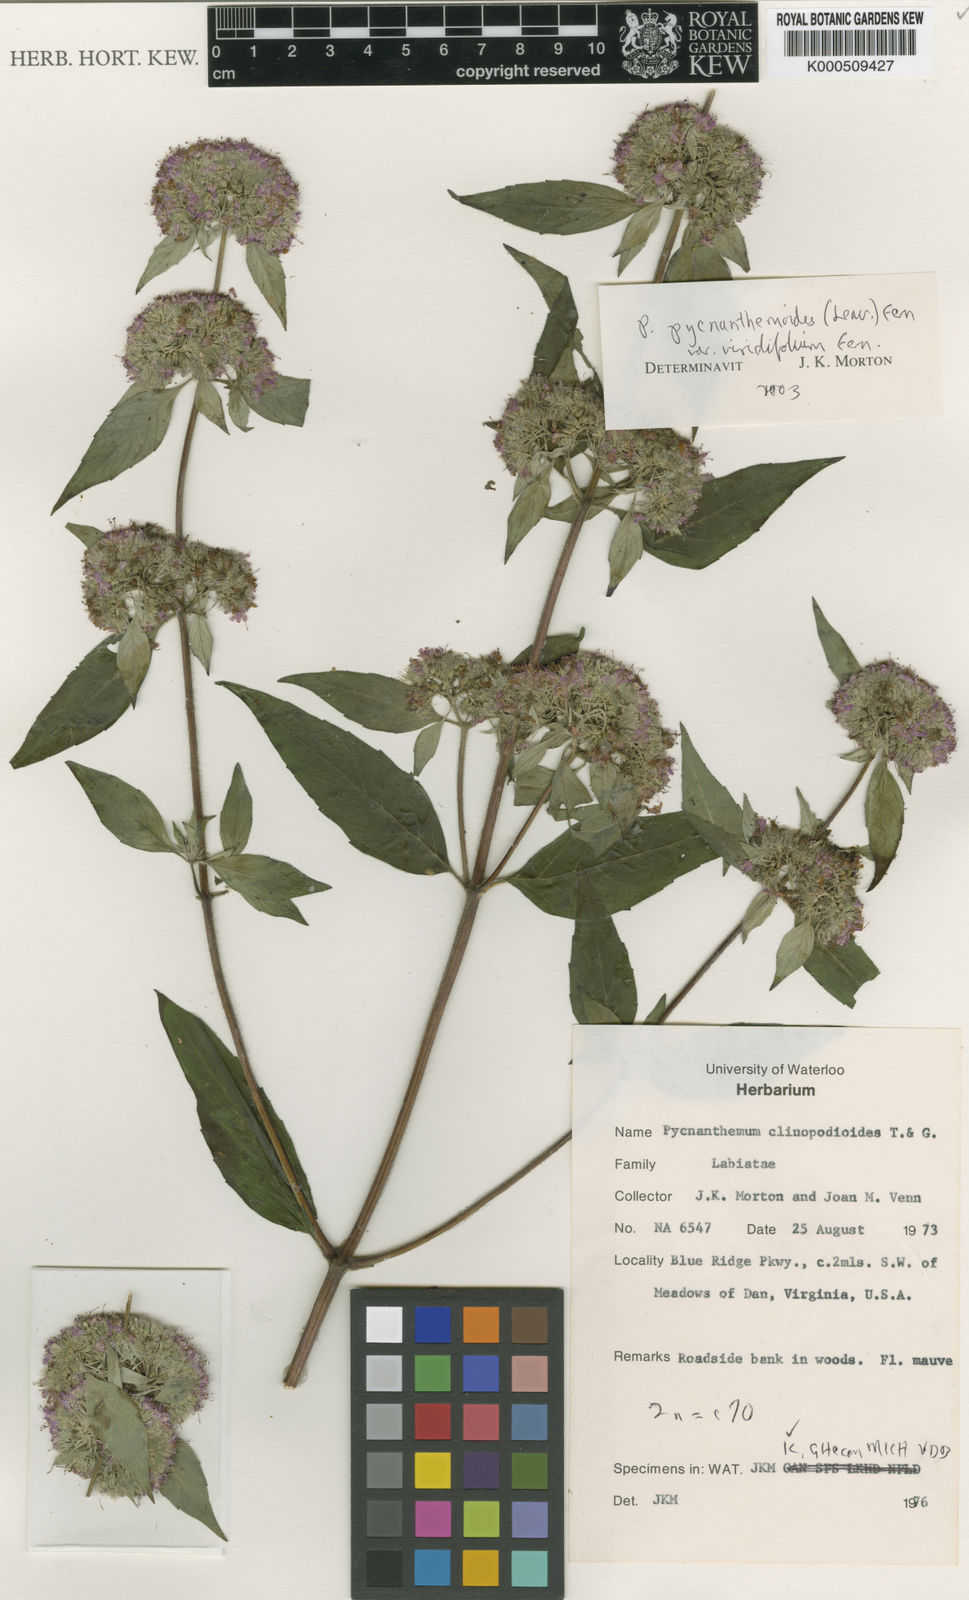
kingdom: Plantae
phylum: Tracheophyta
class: Magnoliopsida
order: Lamiales
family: Lamiaceae
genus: Pycnanthemum
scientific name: Pycnanthemum pycnanthemoides
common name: Southern mountain-mint
